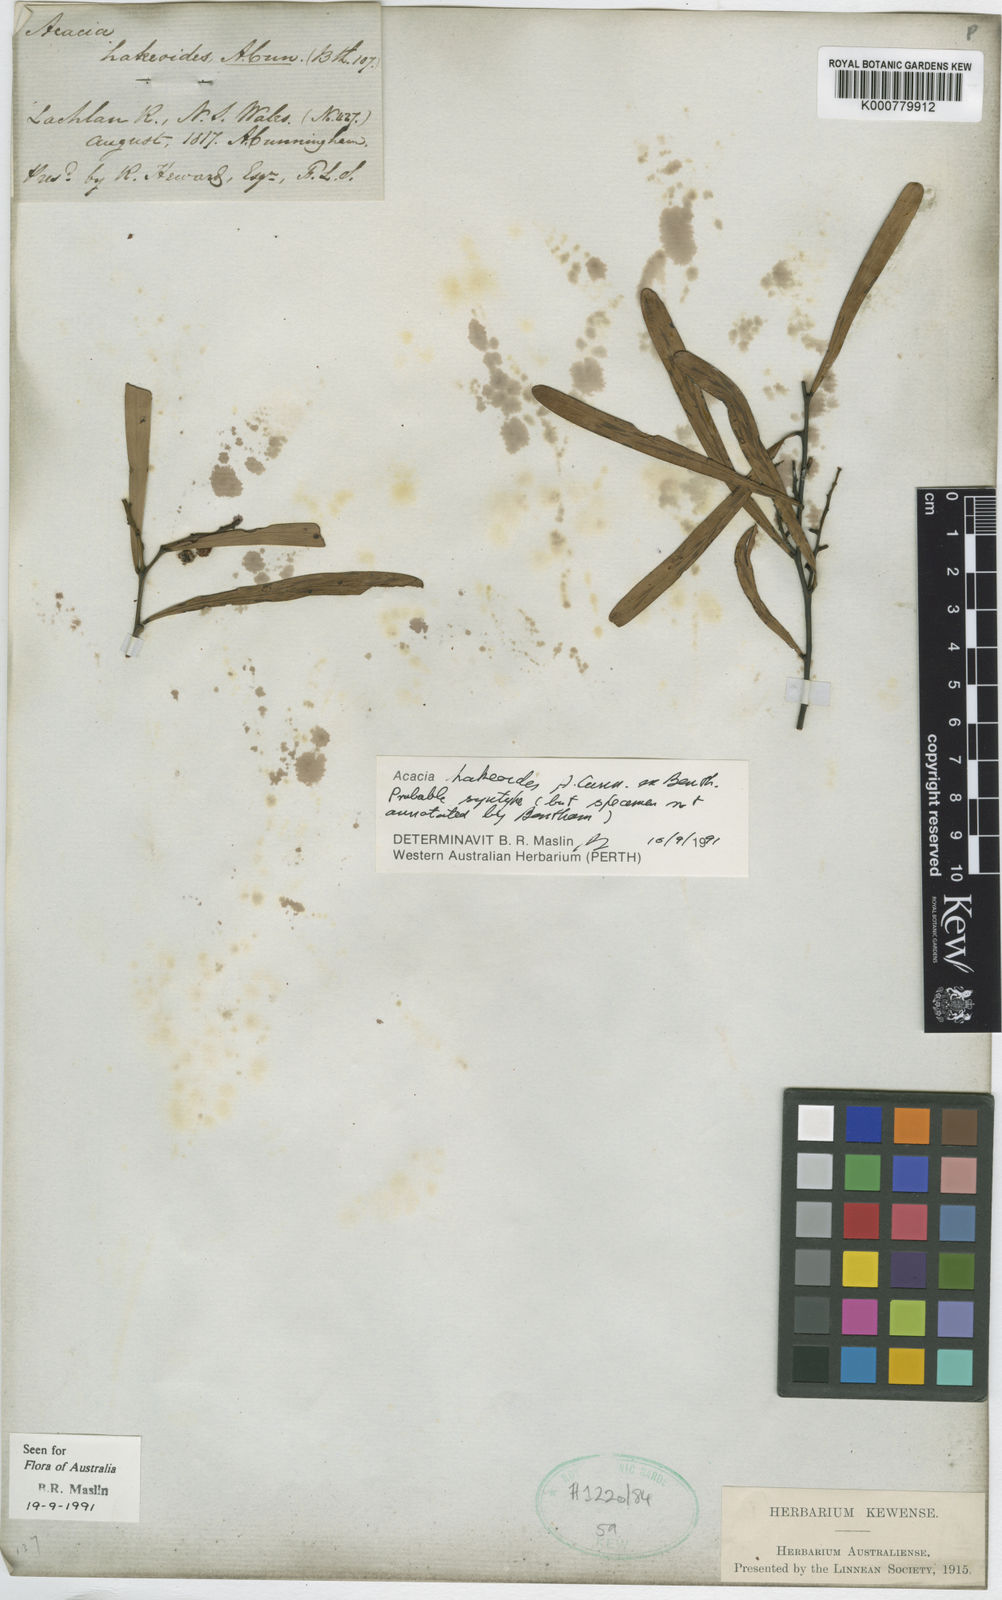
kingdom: Plantae
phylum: Tracheophyta
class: Magnoliopsida
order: Fabales
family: Fabaceae
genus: Acacia
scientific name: Acacia hakeoides
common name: Hakea wattle
